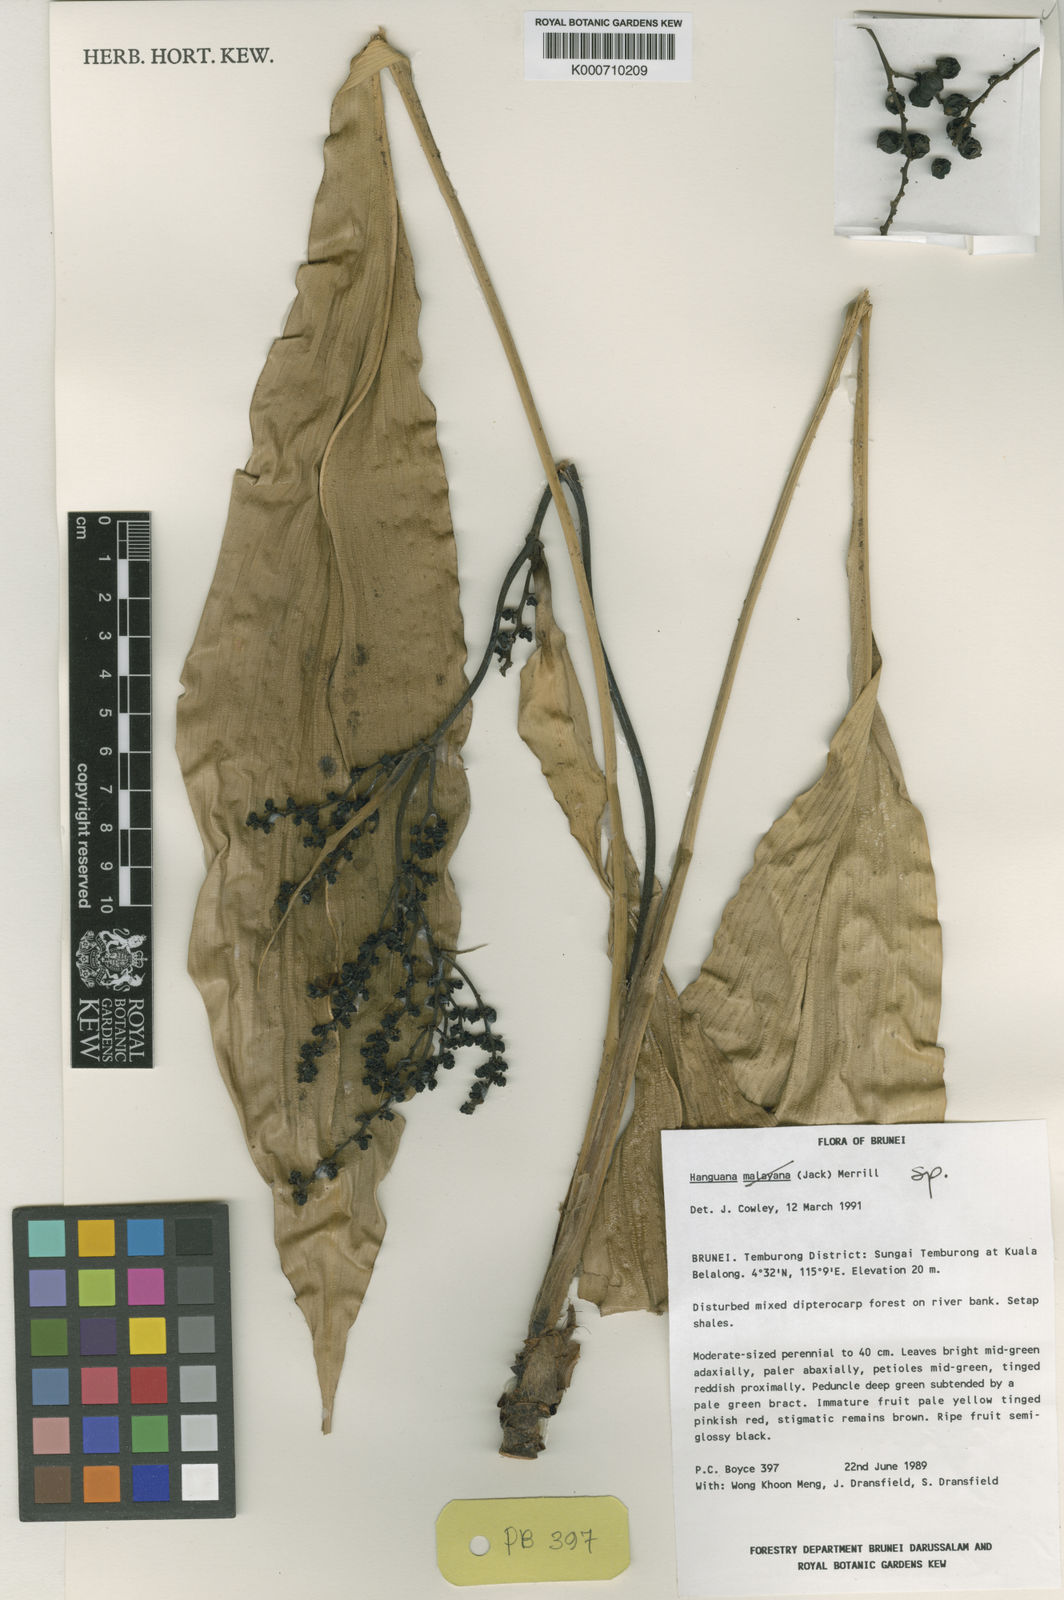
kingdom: Plantae
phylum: Tracheophyta
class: Liliopsida
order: Commelinales
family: Hanguanaceae
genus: Hanguana
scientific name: Hanguana
